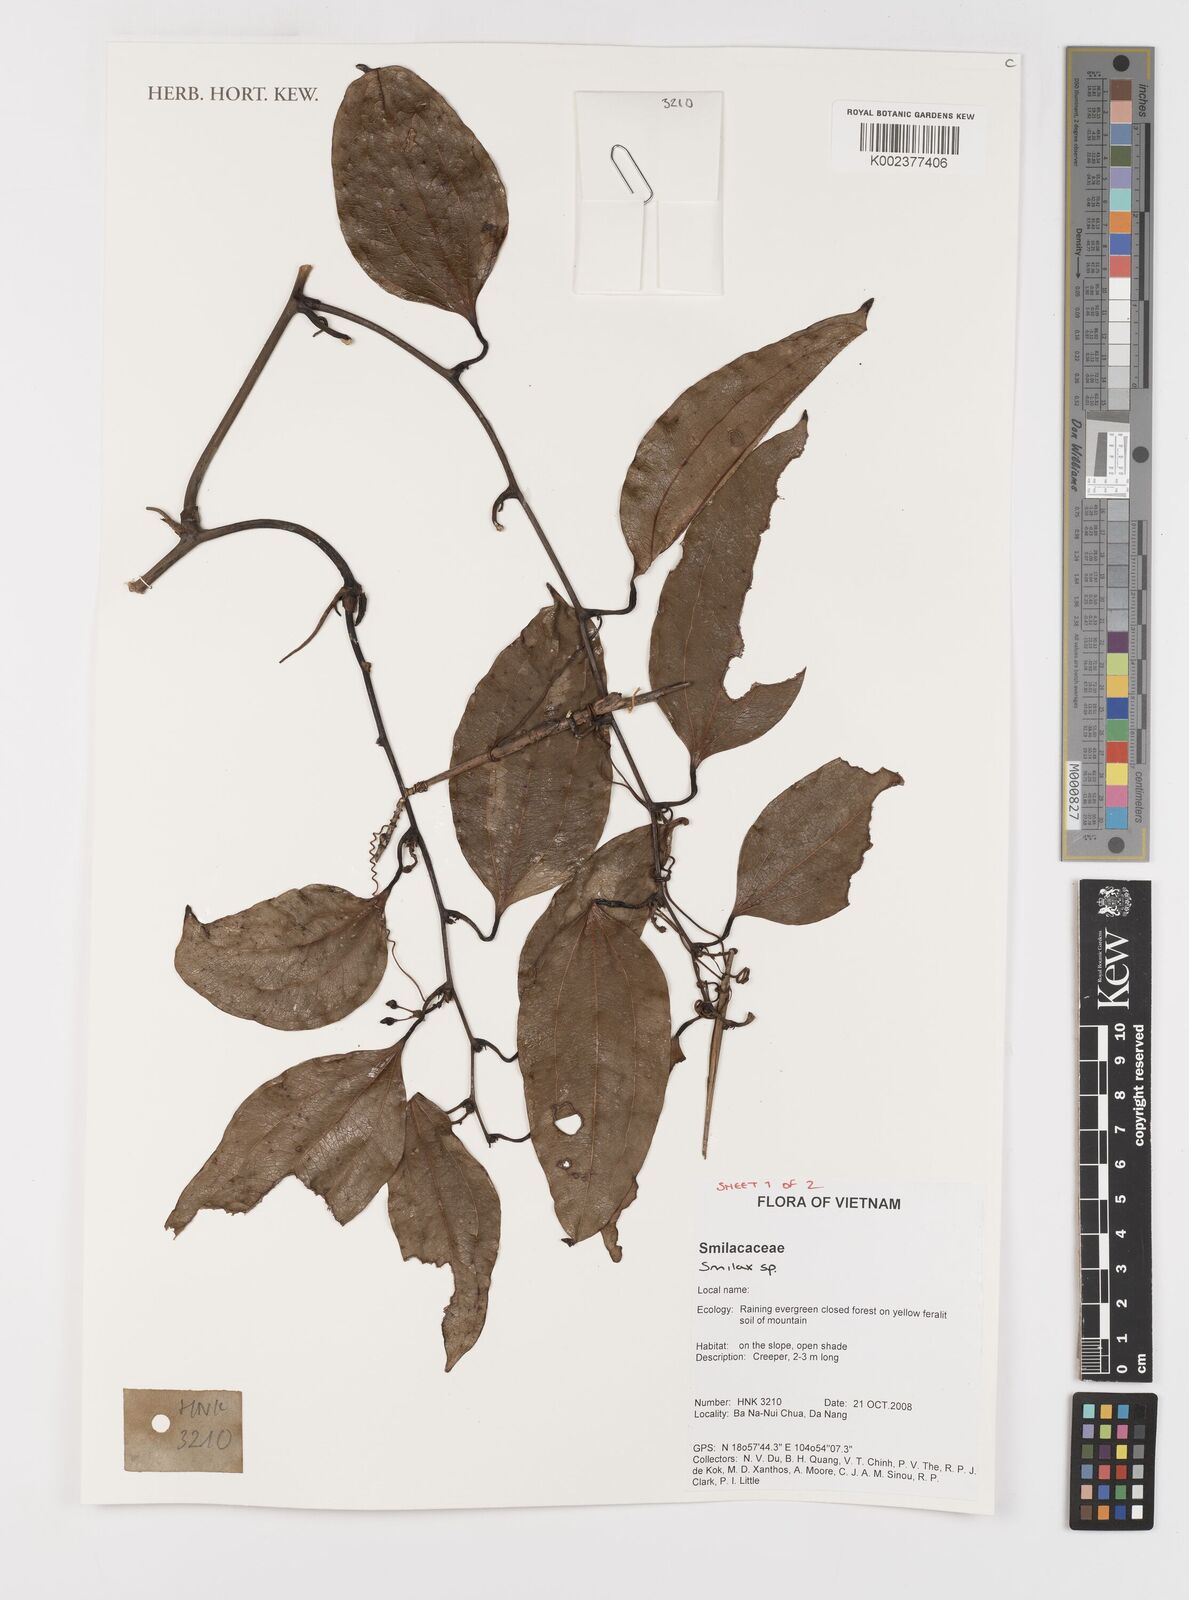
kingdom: Plantae
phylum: Tracheophyta
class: Liliopsida
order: Liliales
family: Smilacaceae
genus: Smilax
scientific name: Smilax
